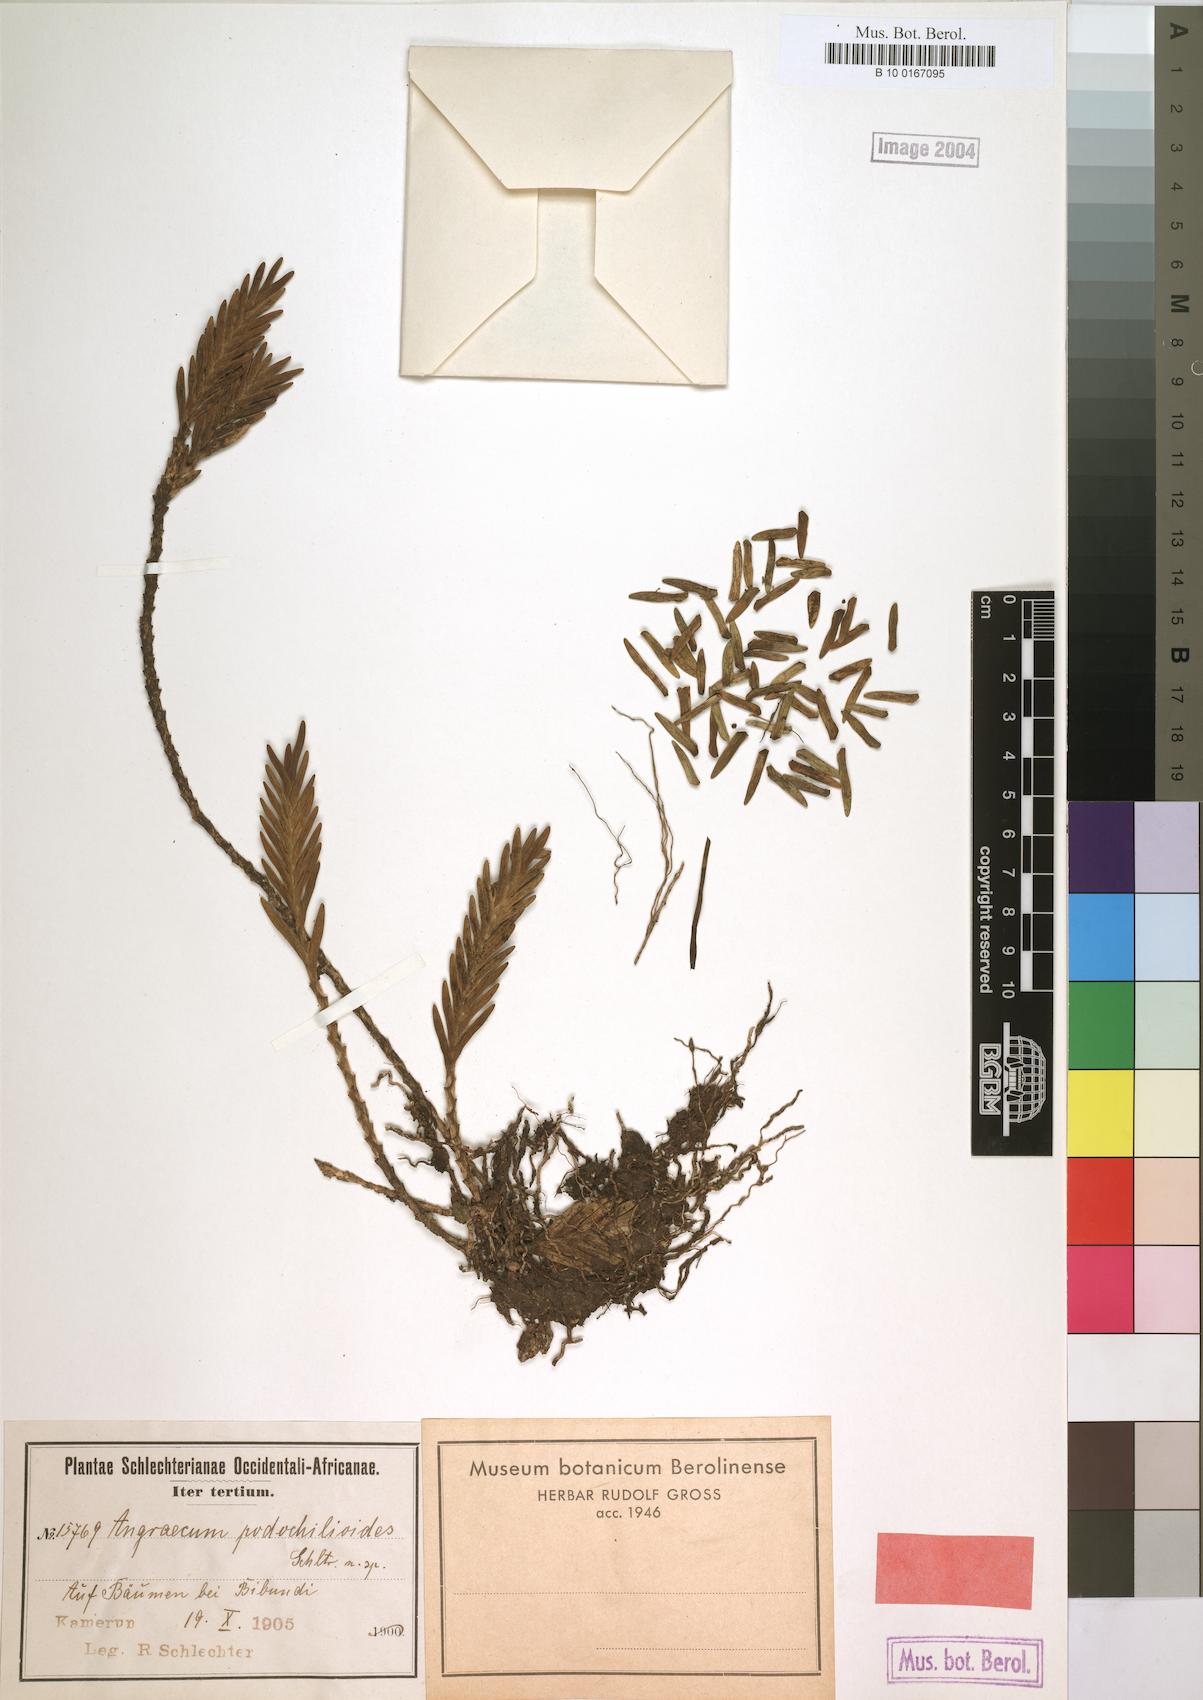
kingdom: Plantae
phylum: Tracheophyta
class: Liliopsida
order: Asparagales
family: Orchidaceae
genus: Angraecum
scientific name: Angraecum podochiloides
